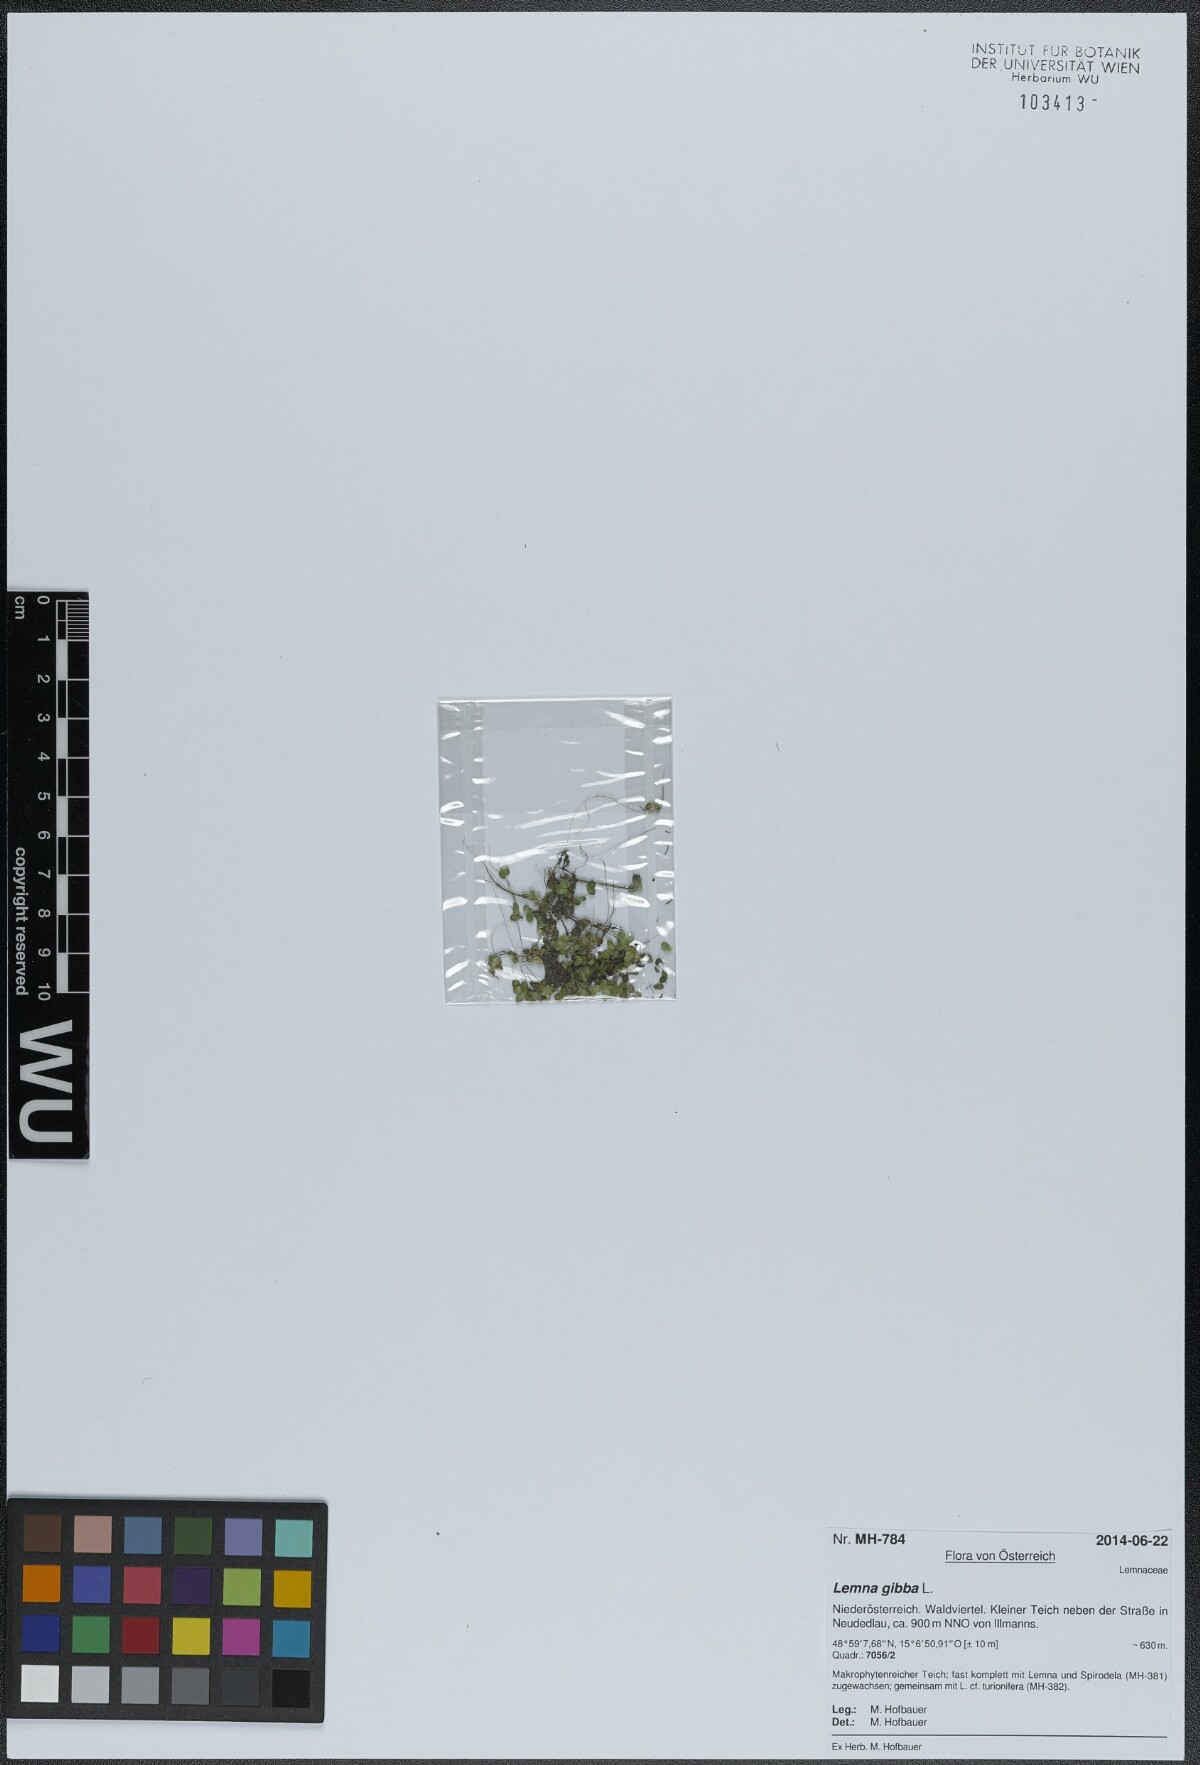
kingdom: Plantae
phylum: Tracheophyta
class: Liliopsida
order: Alismatales
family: Araceae
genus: Lemna
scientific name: Lemna gibba
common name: Fat duckweed
